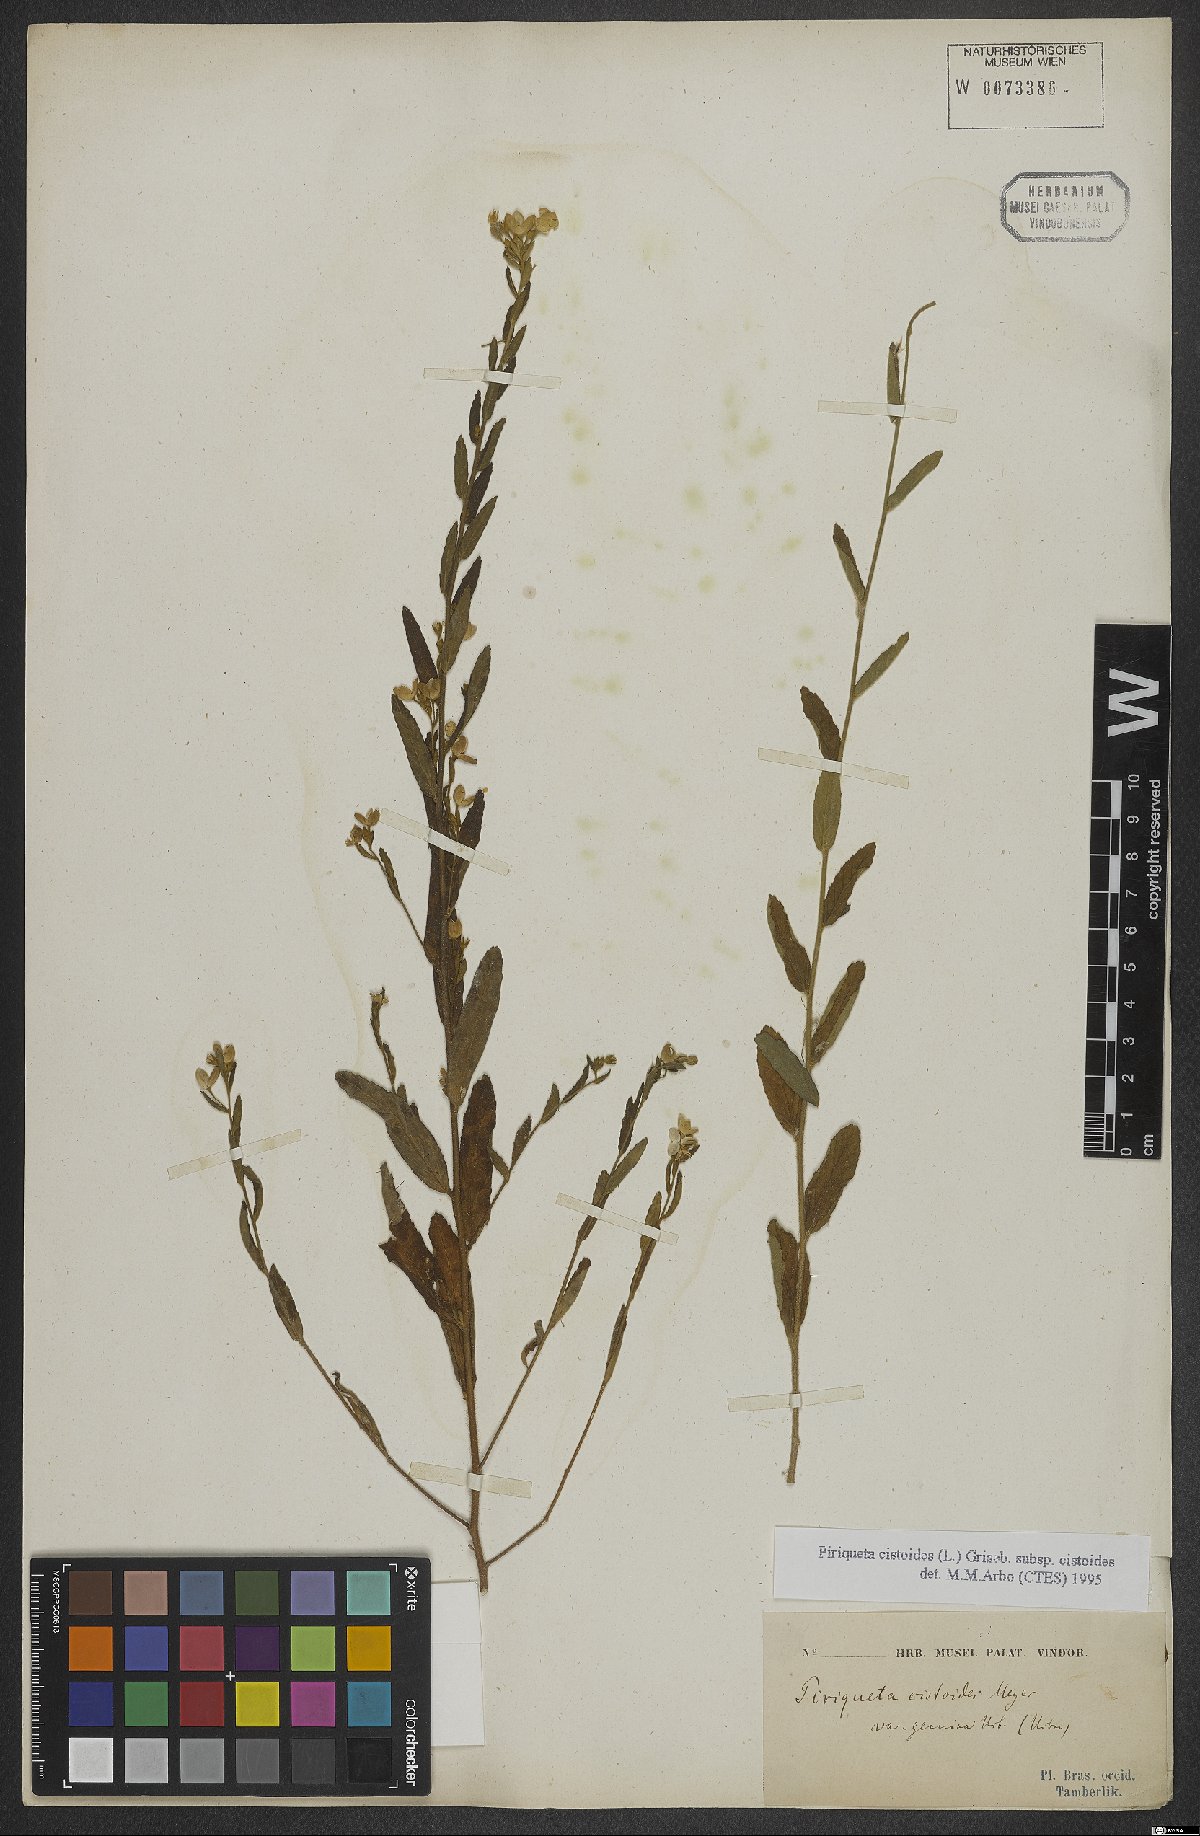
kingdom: Plantae
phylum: Tracheophyta
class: Magnoliopsida
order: Malpighiales
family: Turneraceae
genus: Piriqueta
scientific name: Piriqueta cistoides
